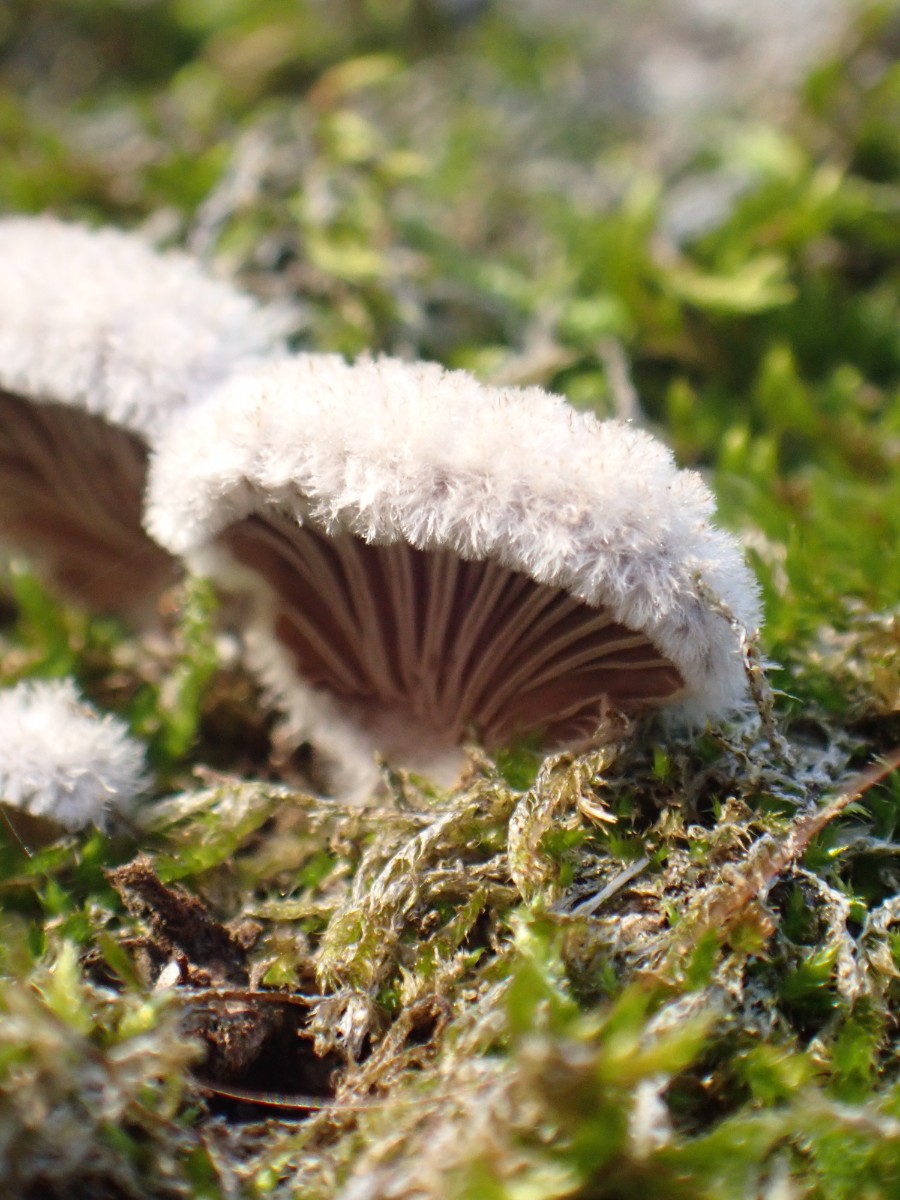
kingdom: Fungi
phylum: Basidiomycota
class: Agaricomycetes
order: Agaricales
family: Schizophyllaceae
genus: Schizophyllum
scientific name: Schizophyllum commune
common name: kløvblad
